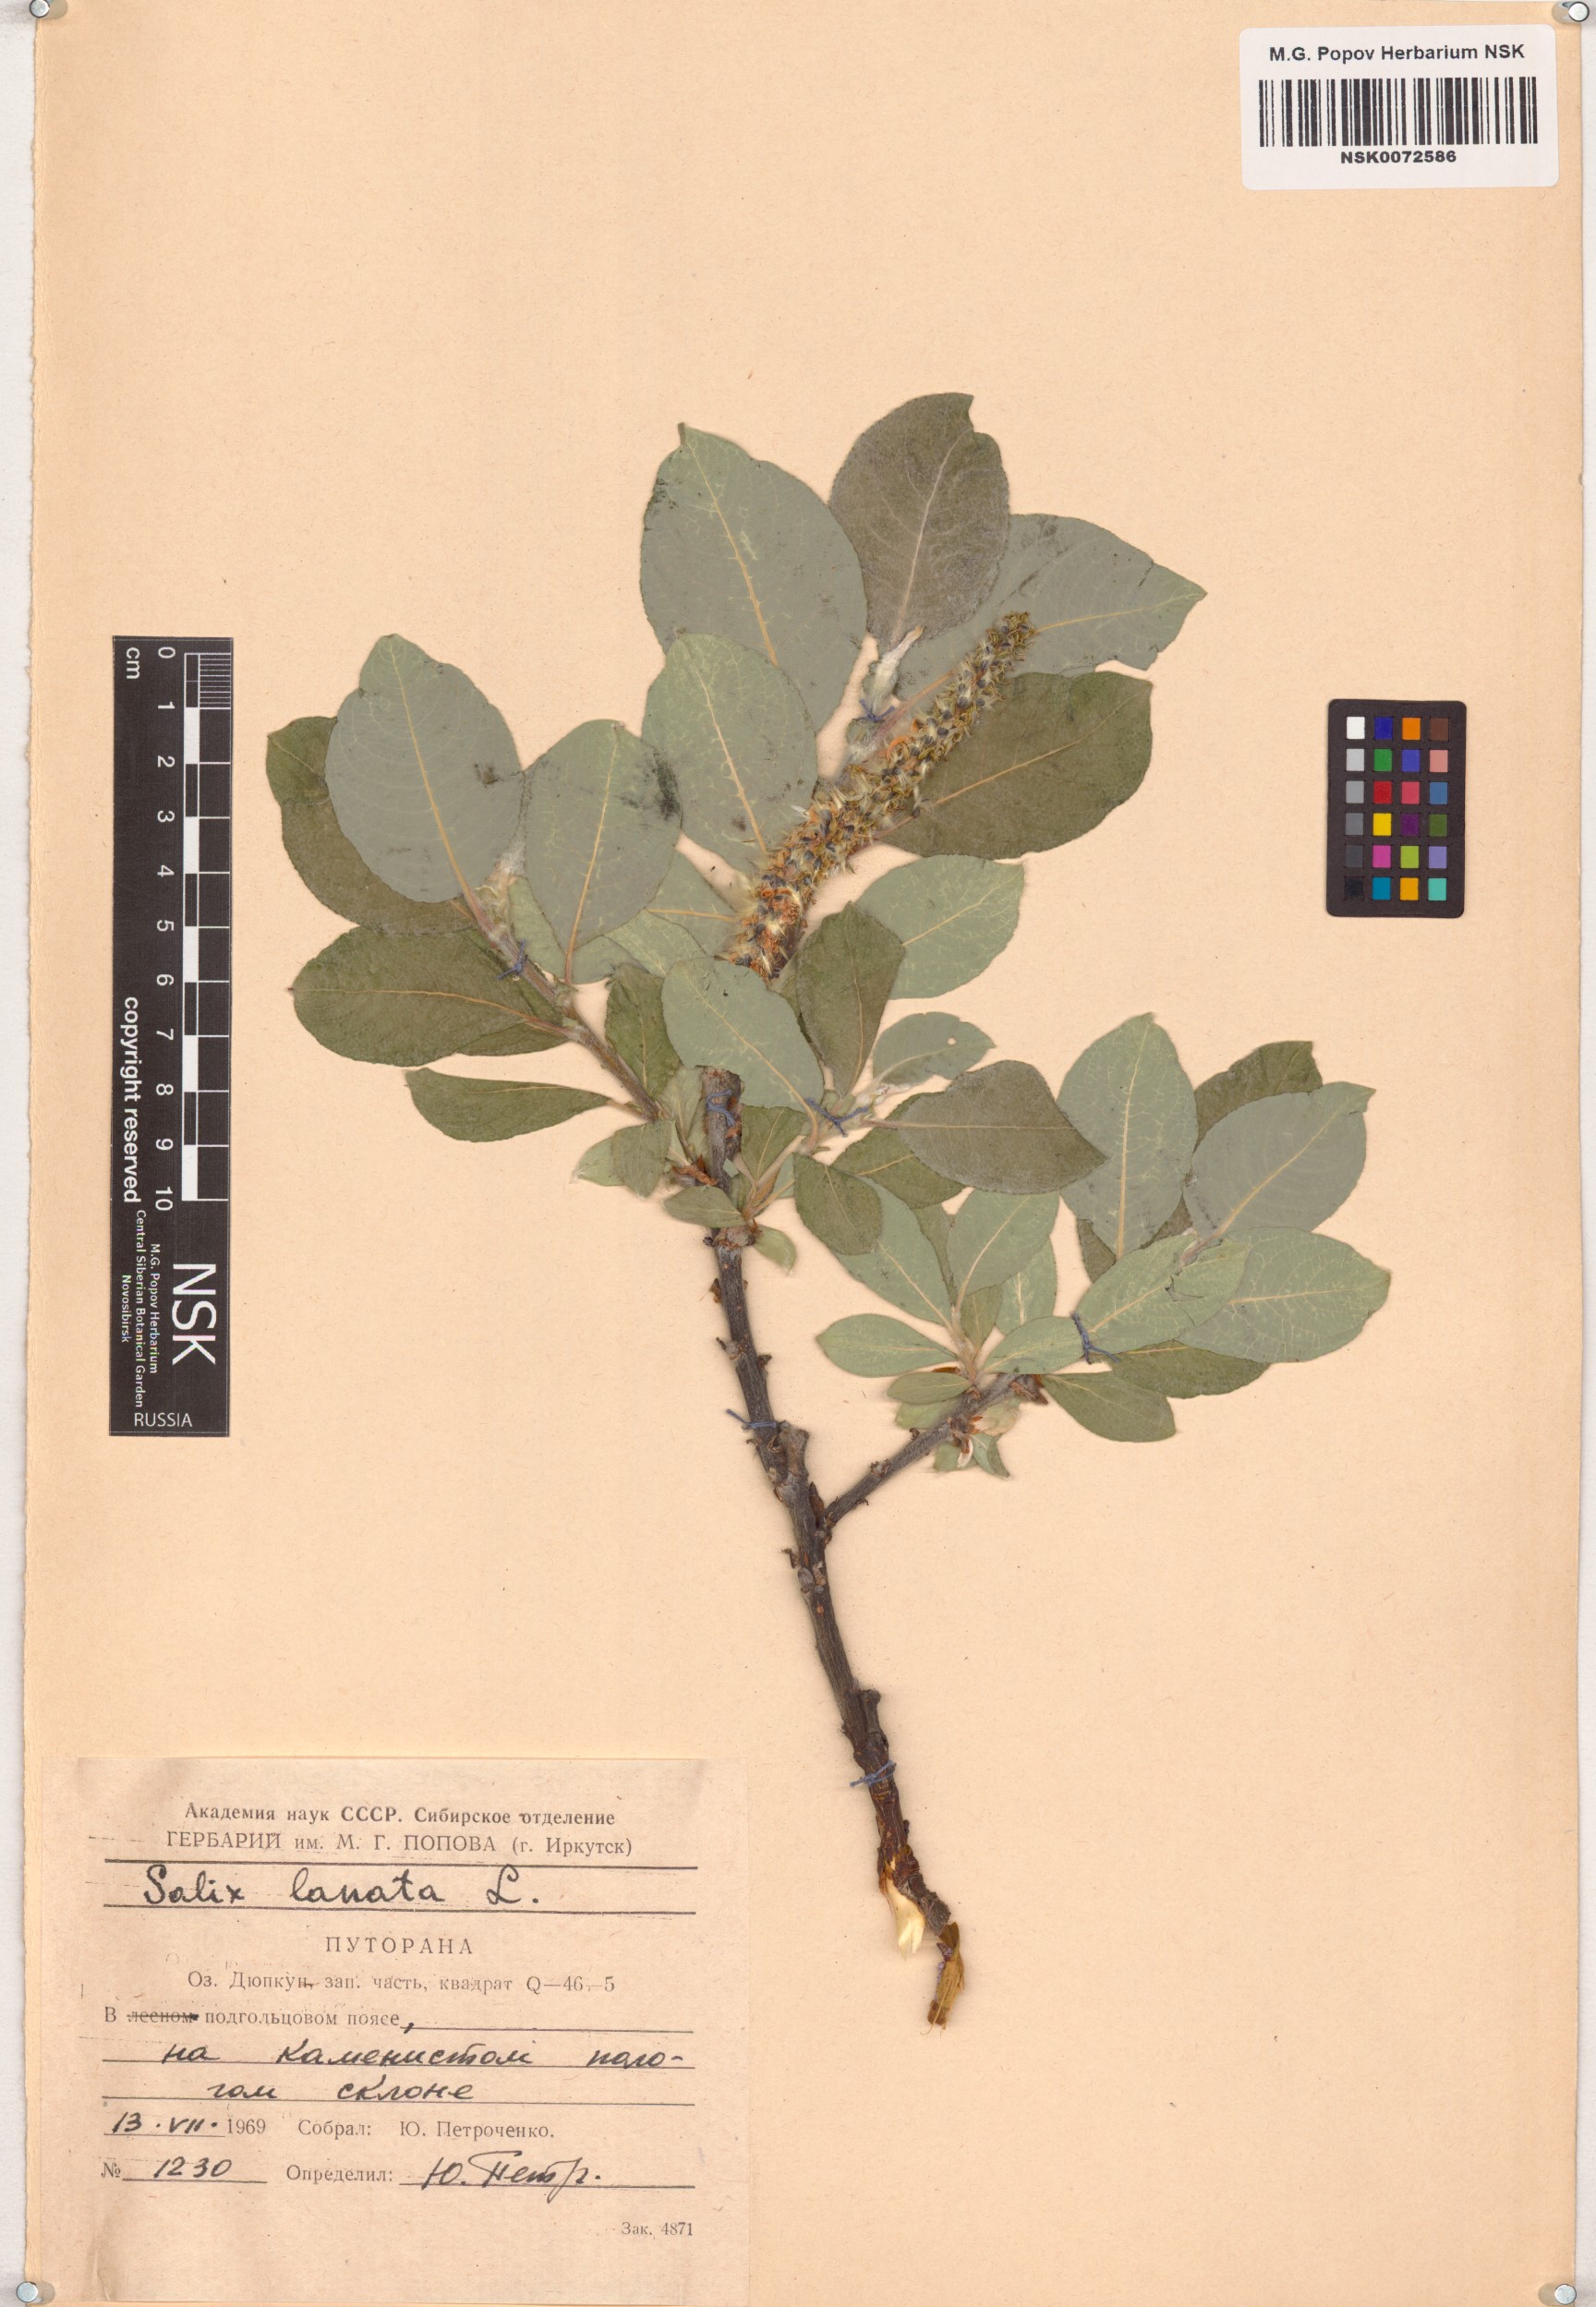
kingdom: Plantae
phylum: Tracheophyta
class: Magnoliopsida
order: Malpighiales
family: Salicaceae
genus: Salix
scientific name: Salix lanata
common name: Woolly willow
